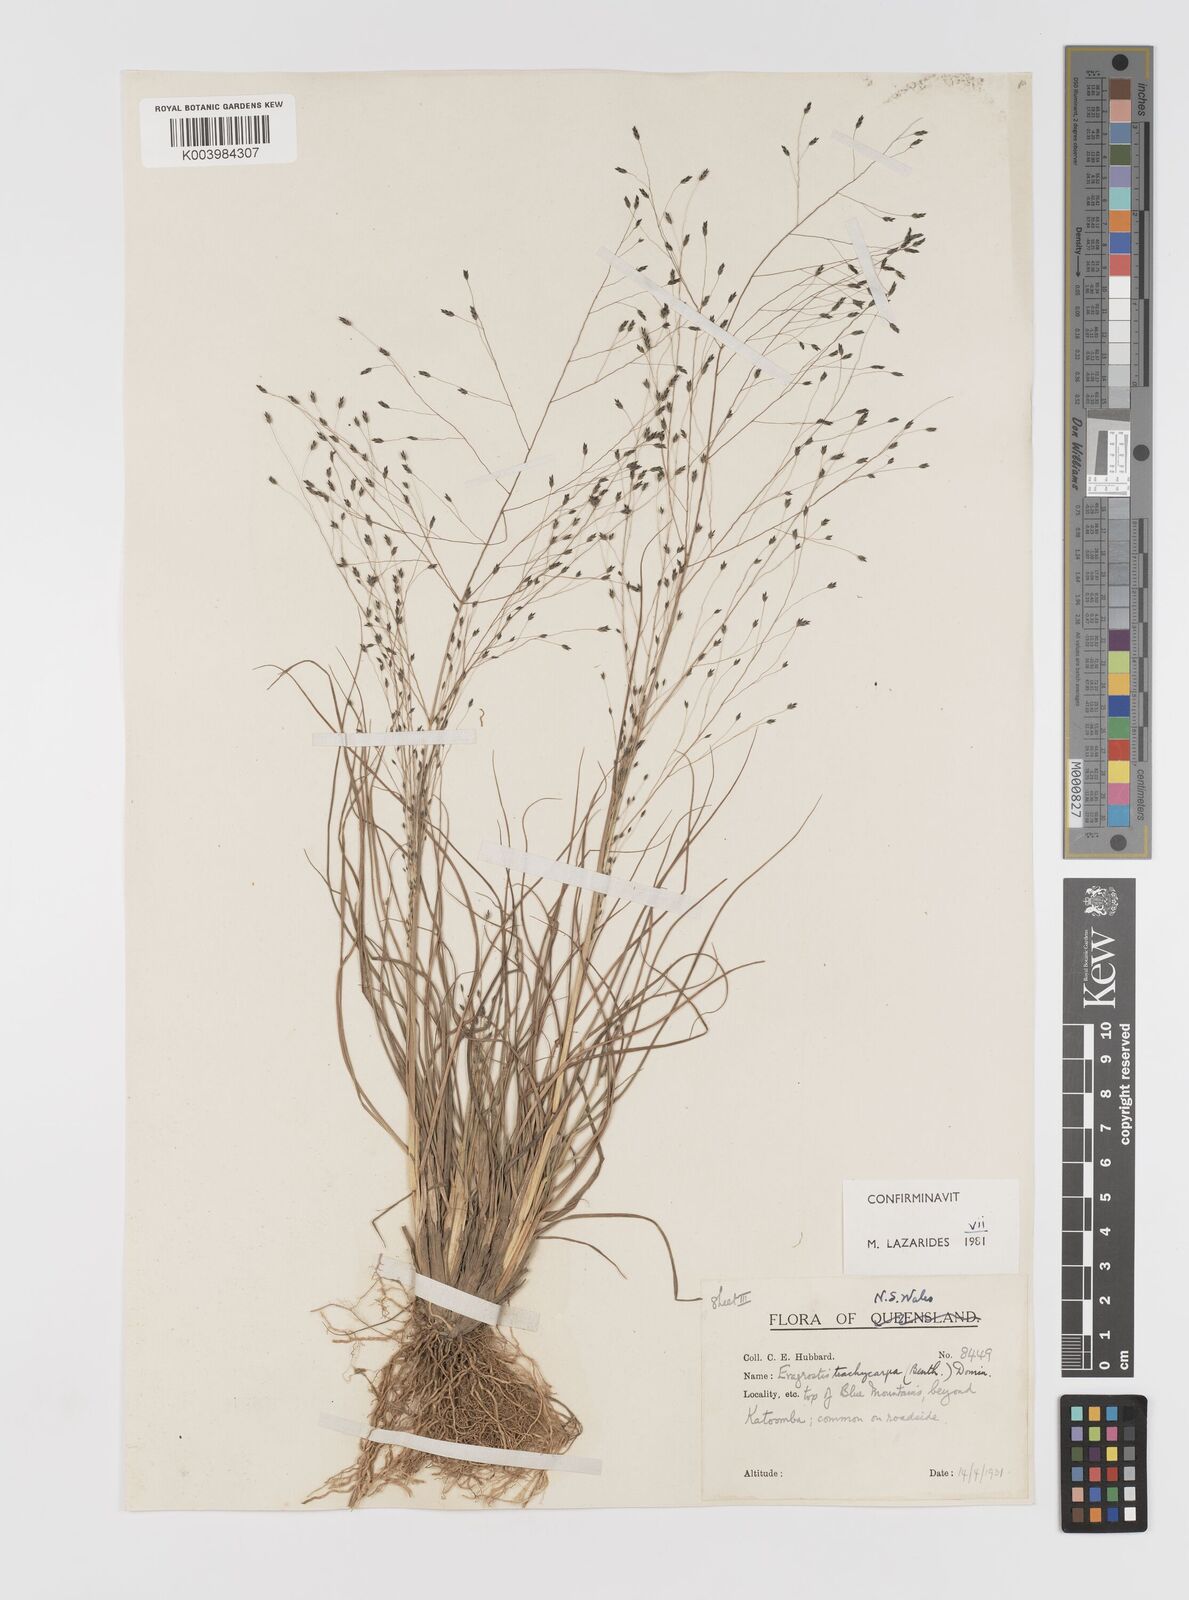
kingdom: Plantae
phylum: Tracheophyta
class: Liliopsida
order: Poales
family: Poaceae
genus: Eragrostis
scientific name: Eragrostis trachycarpa
